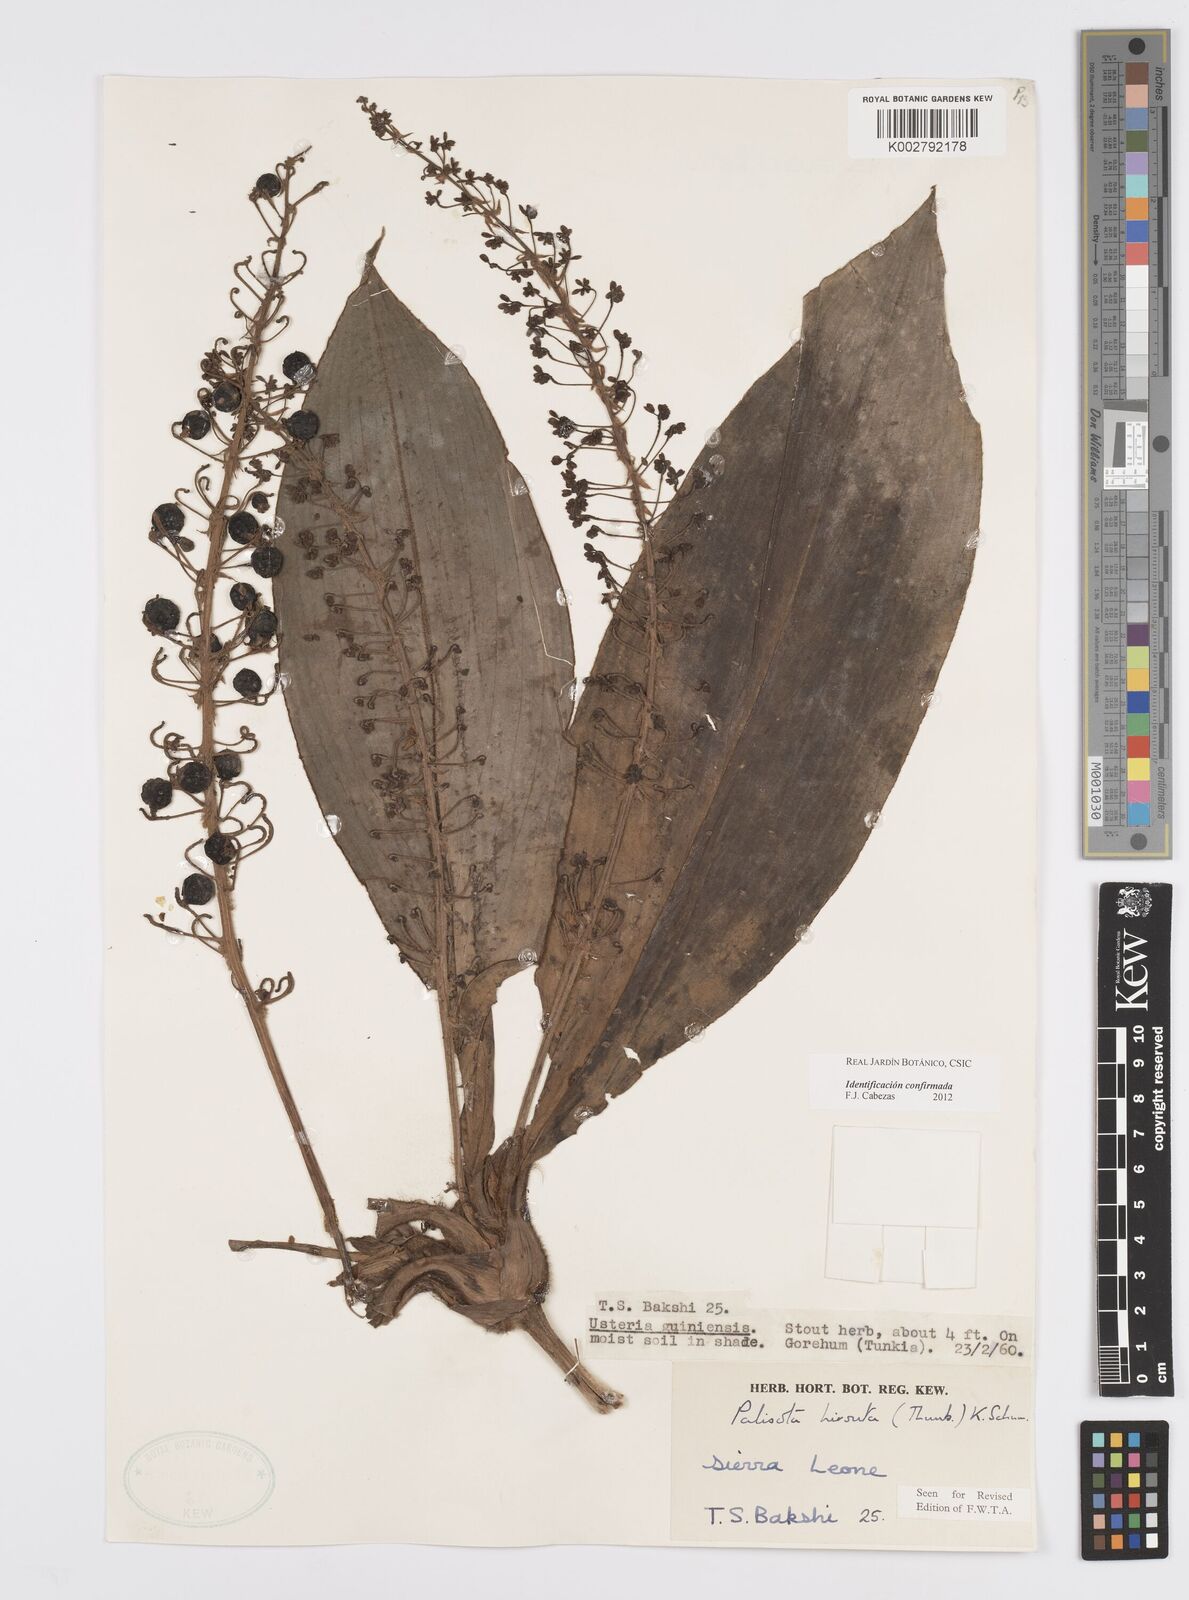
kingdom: Plantae
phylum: Tracheophyta
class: Liliopsida
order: Commelinales
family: Commelinaceae
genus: Palisota
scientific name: Palisota hirsuta
